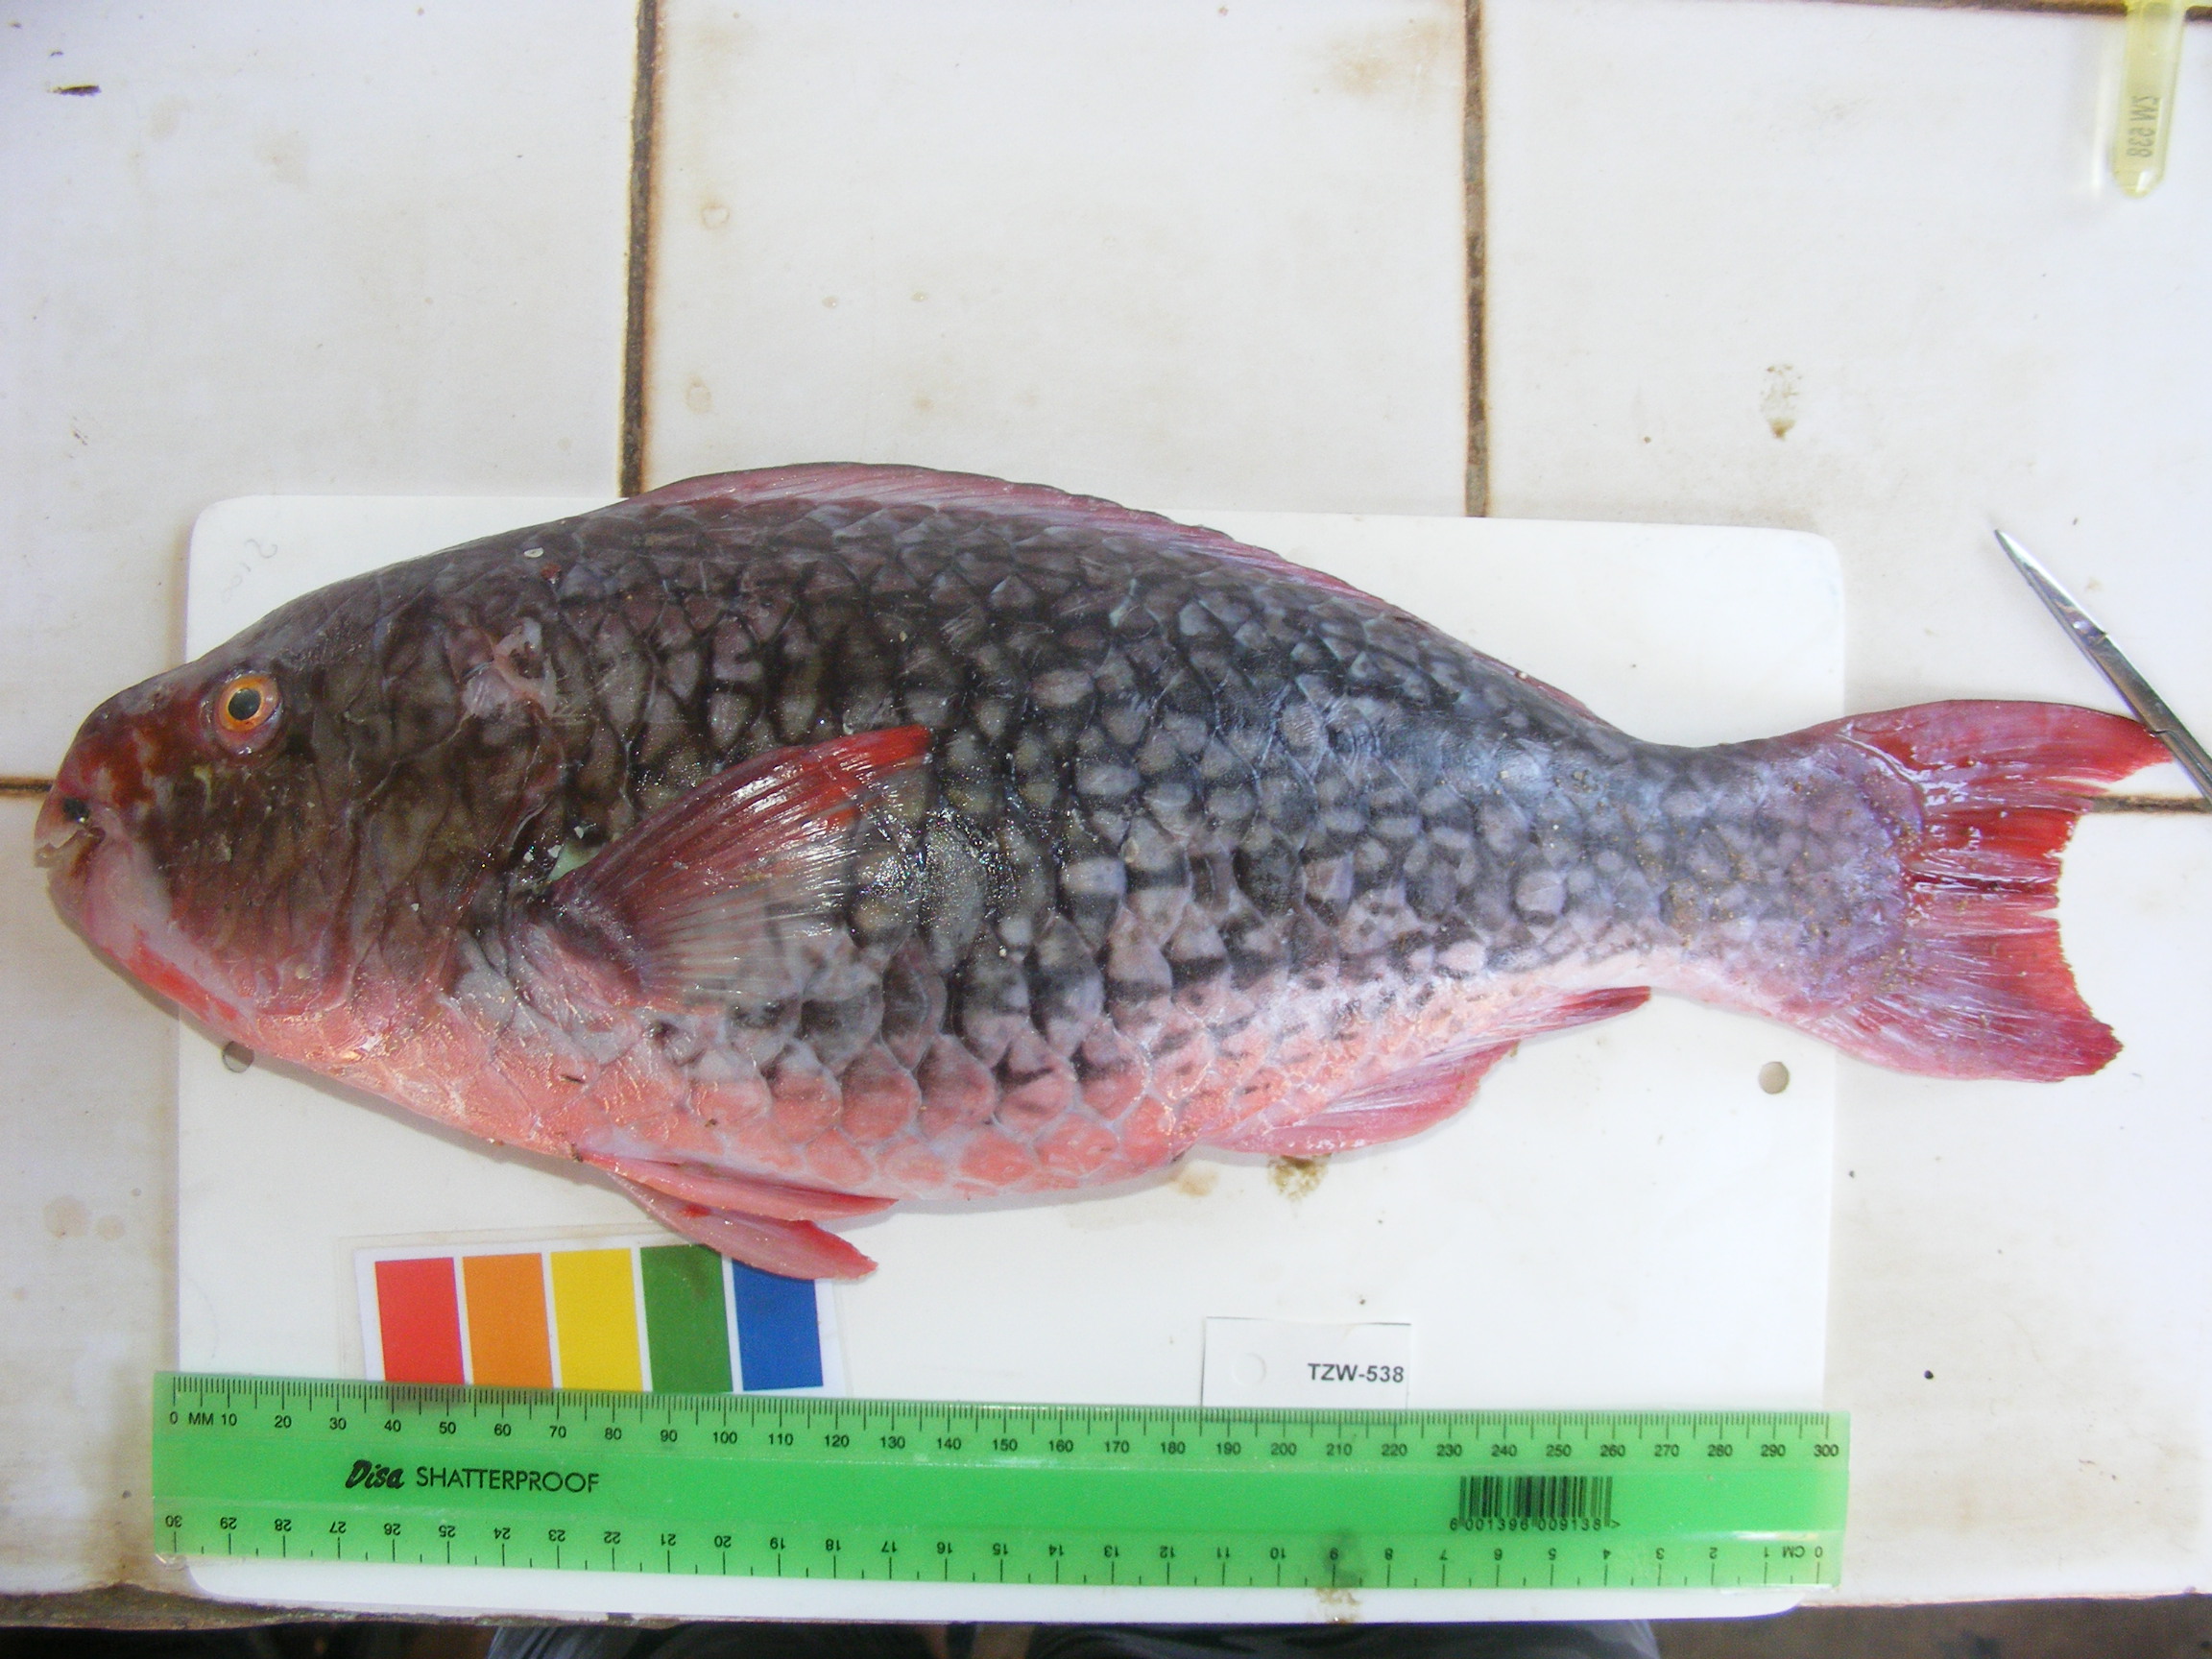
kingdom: Animalia
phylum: Chordata
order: Perciformes
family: Scaridae
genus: Scarus
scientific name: Scarus rubroviolaceus
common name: Ember parrotfish
